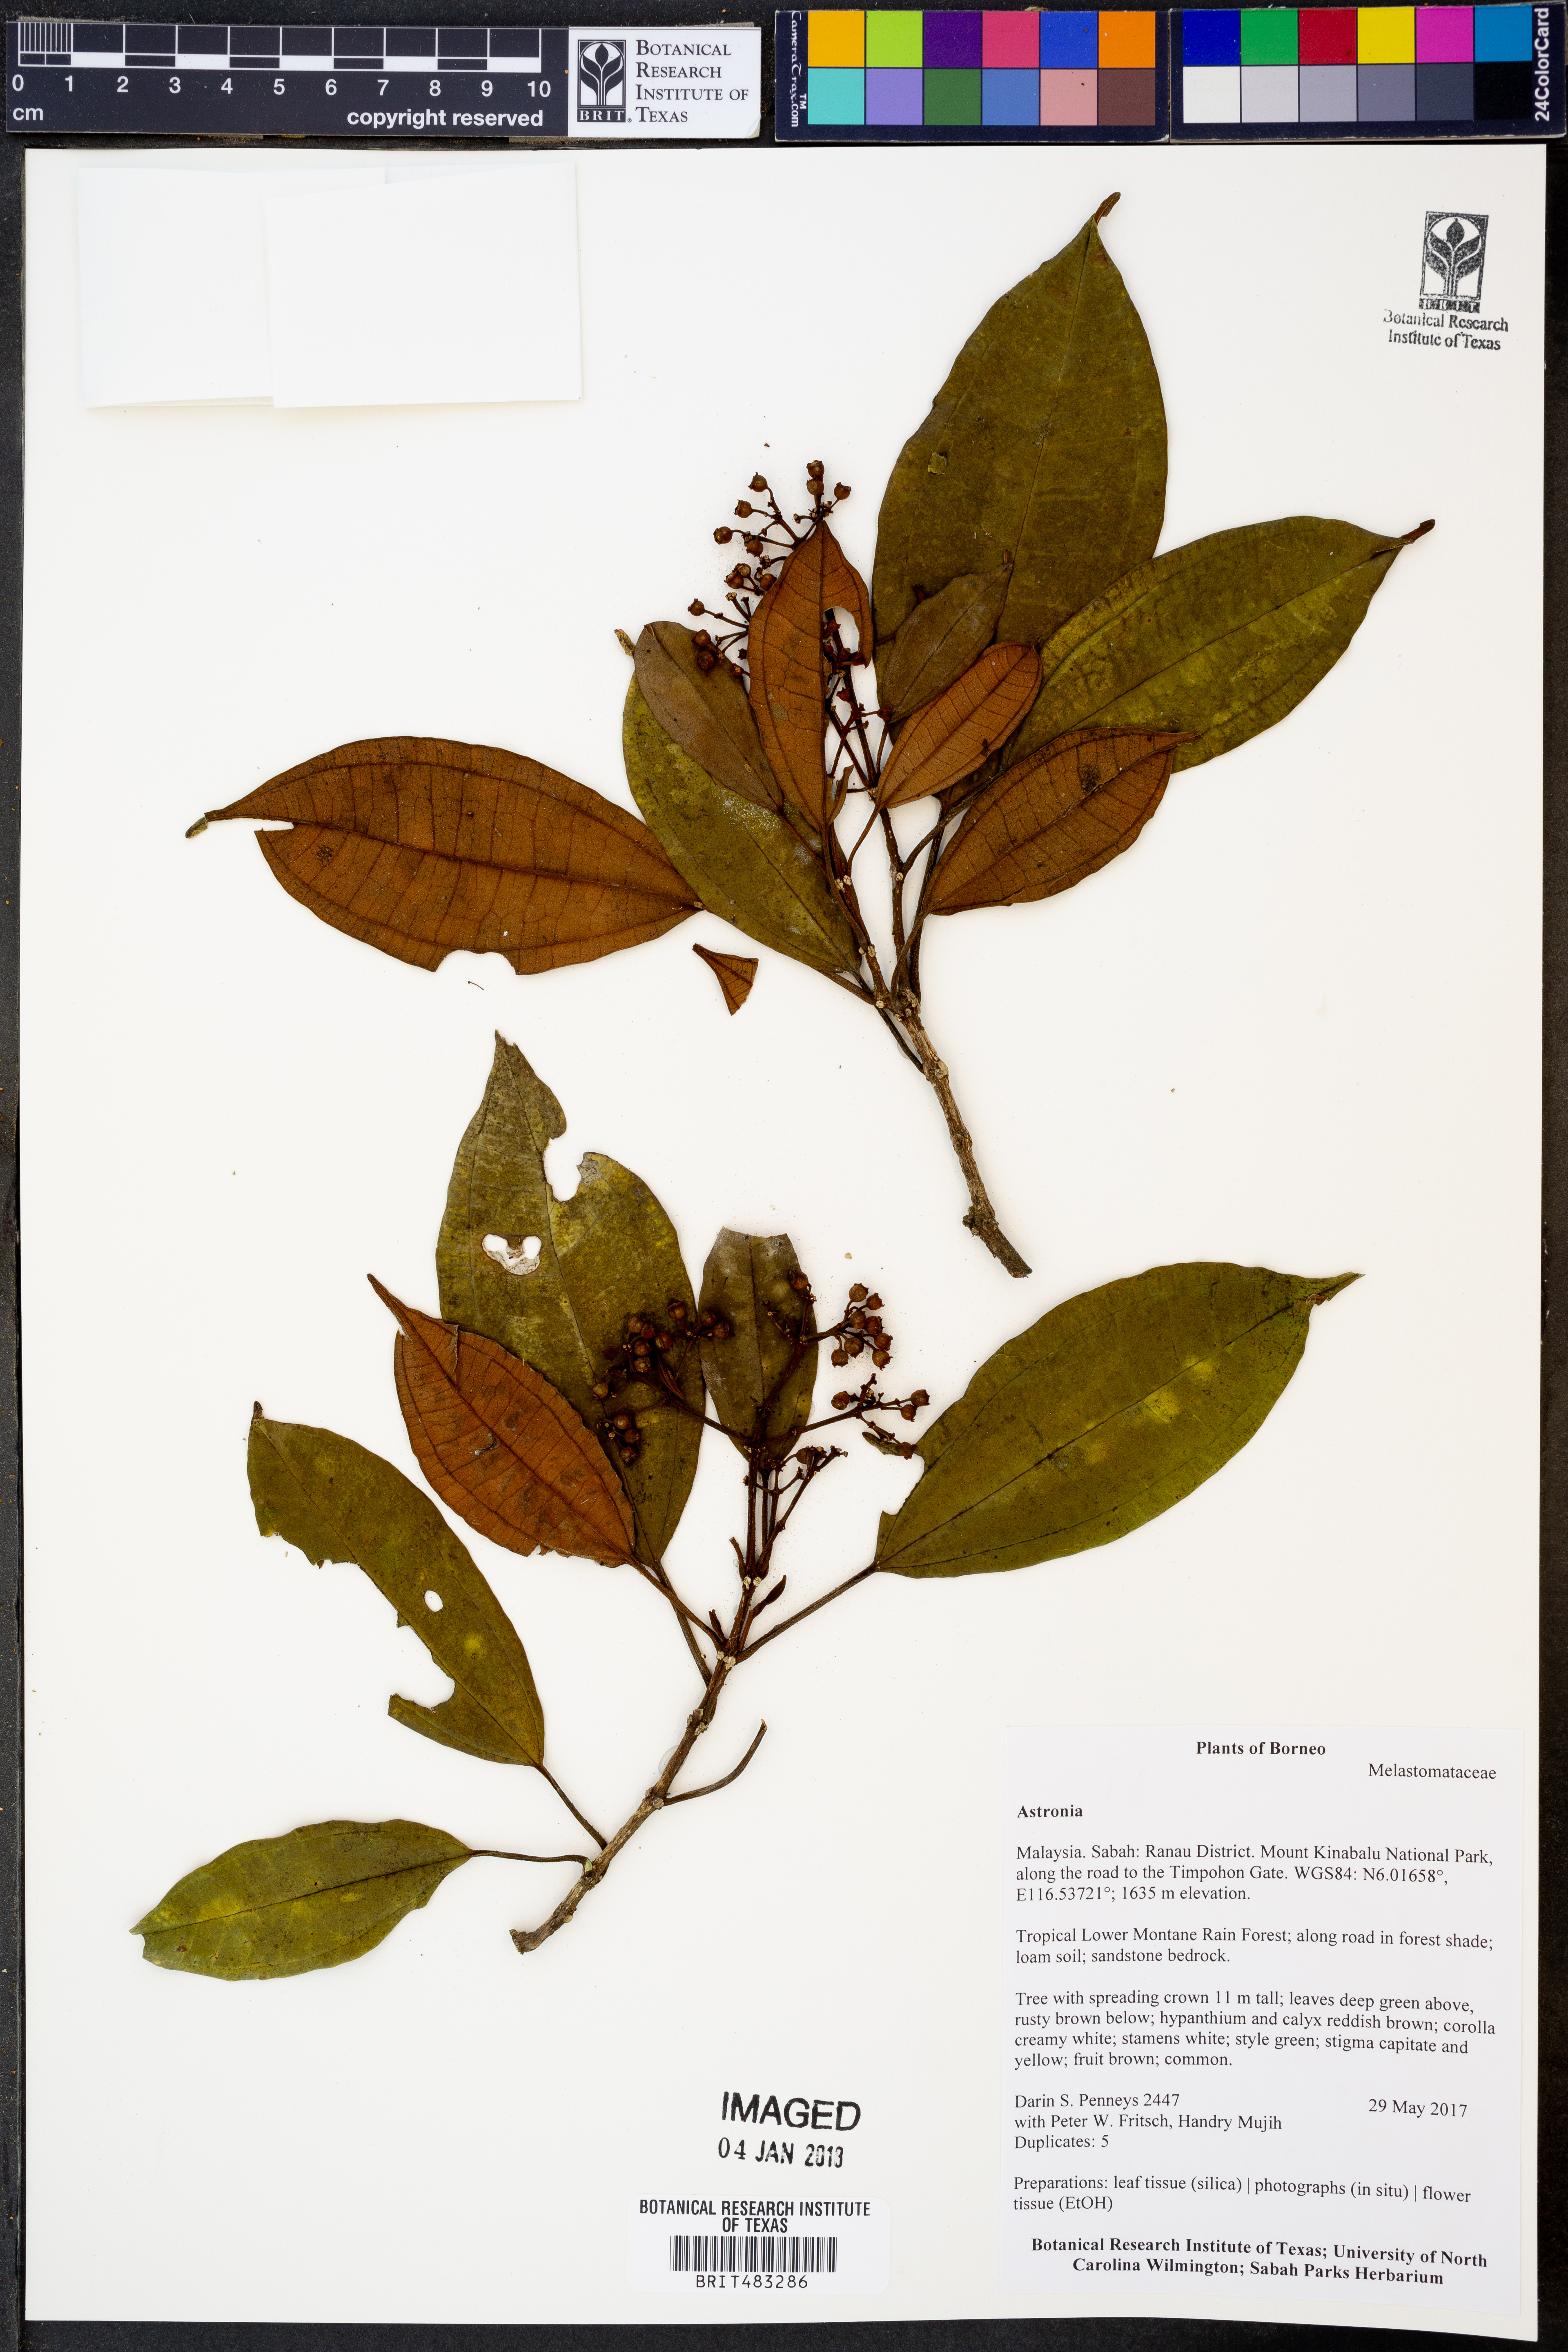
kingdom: Plantae
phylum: Tracheophyta
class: Magnoliopsida
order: Myrtales
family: Melastomataceae
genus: Astronia
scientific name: Astronia
